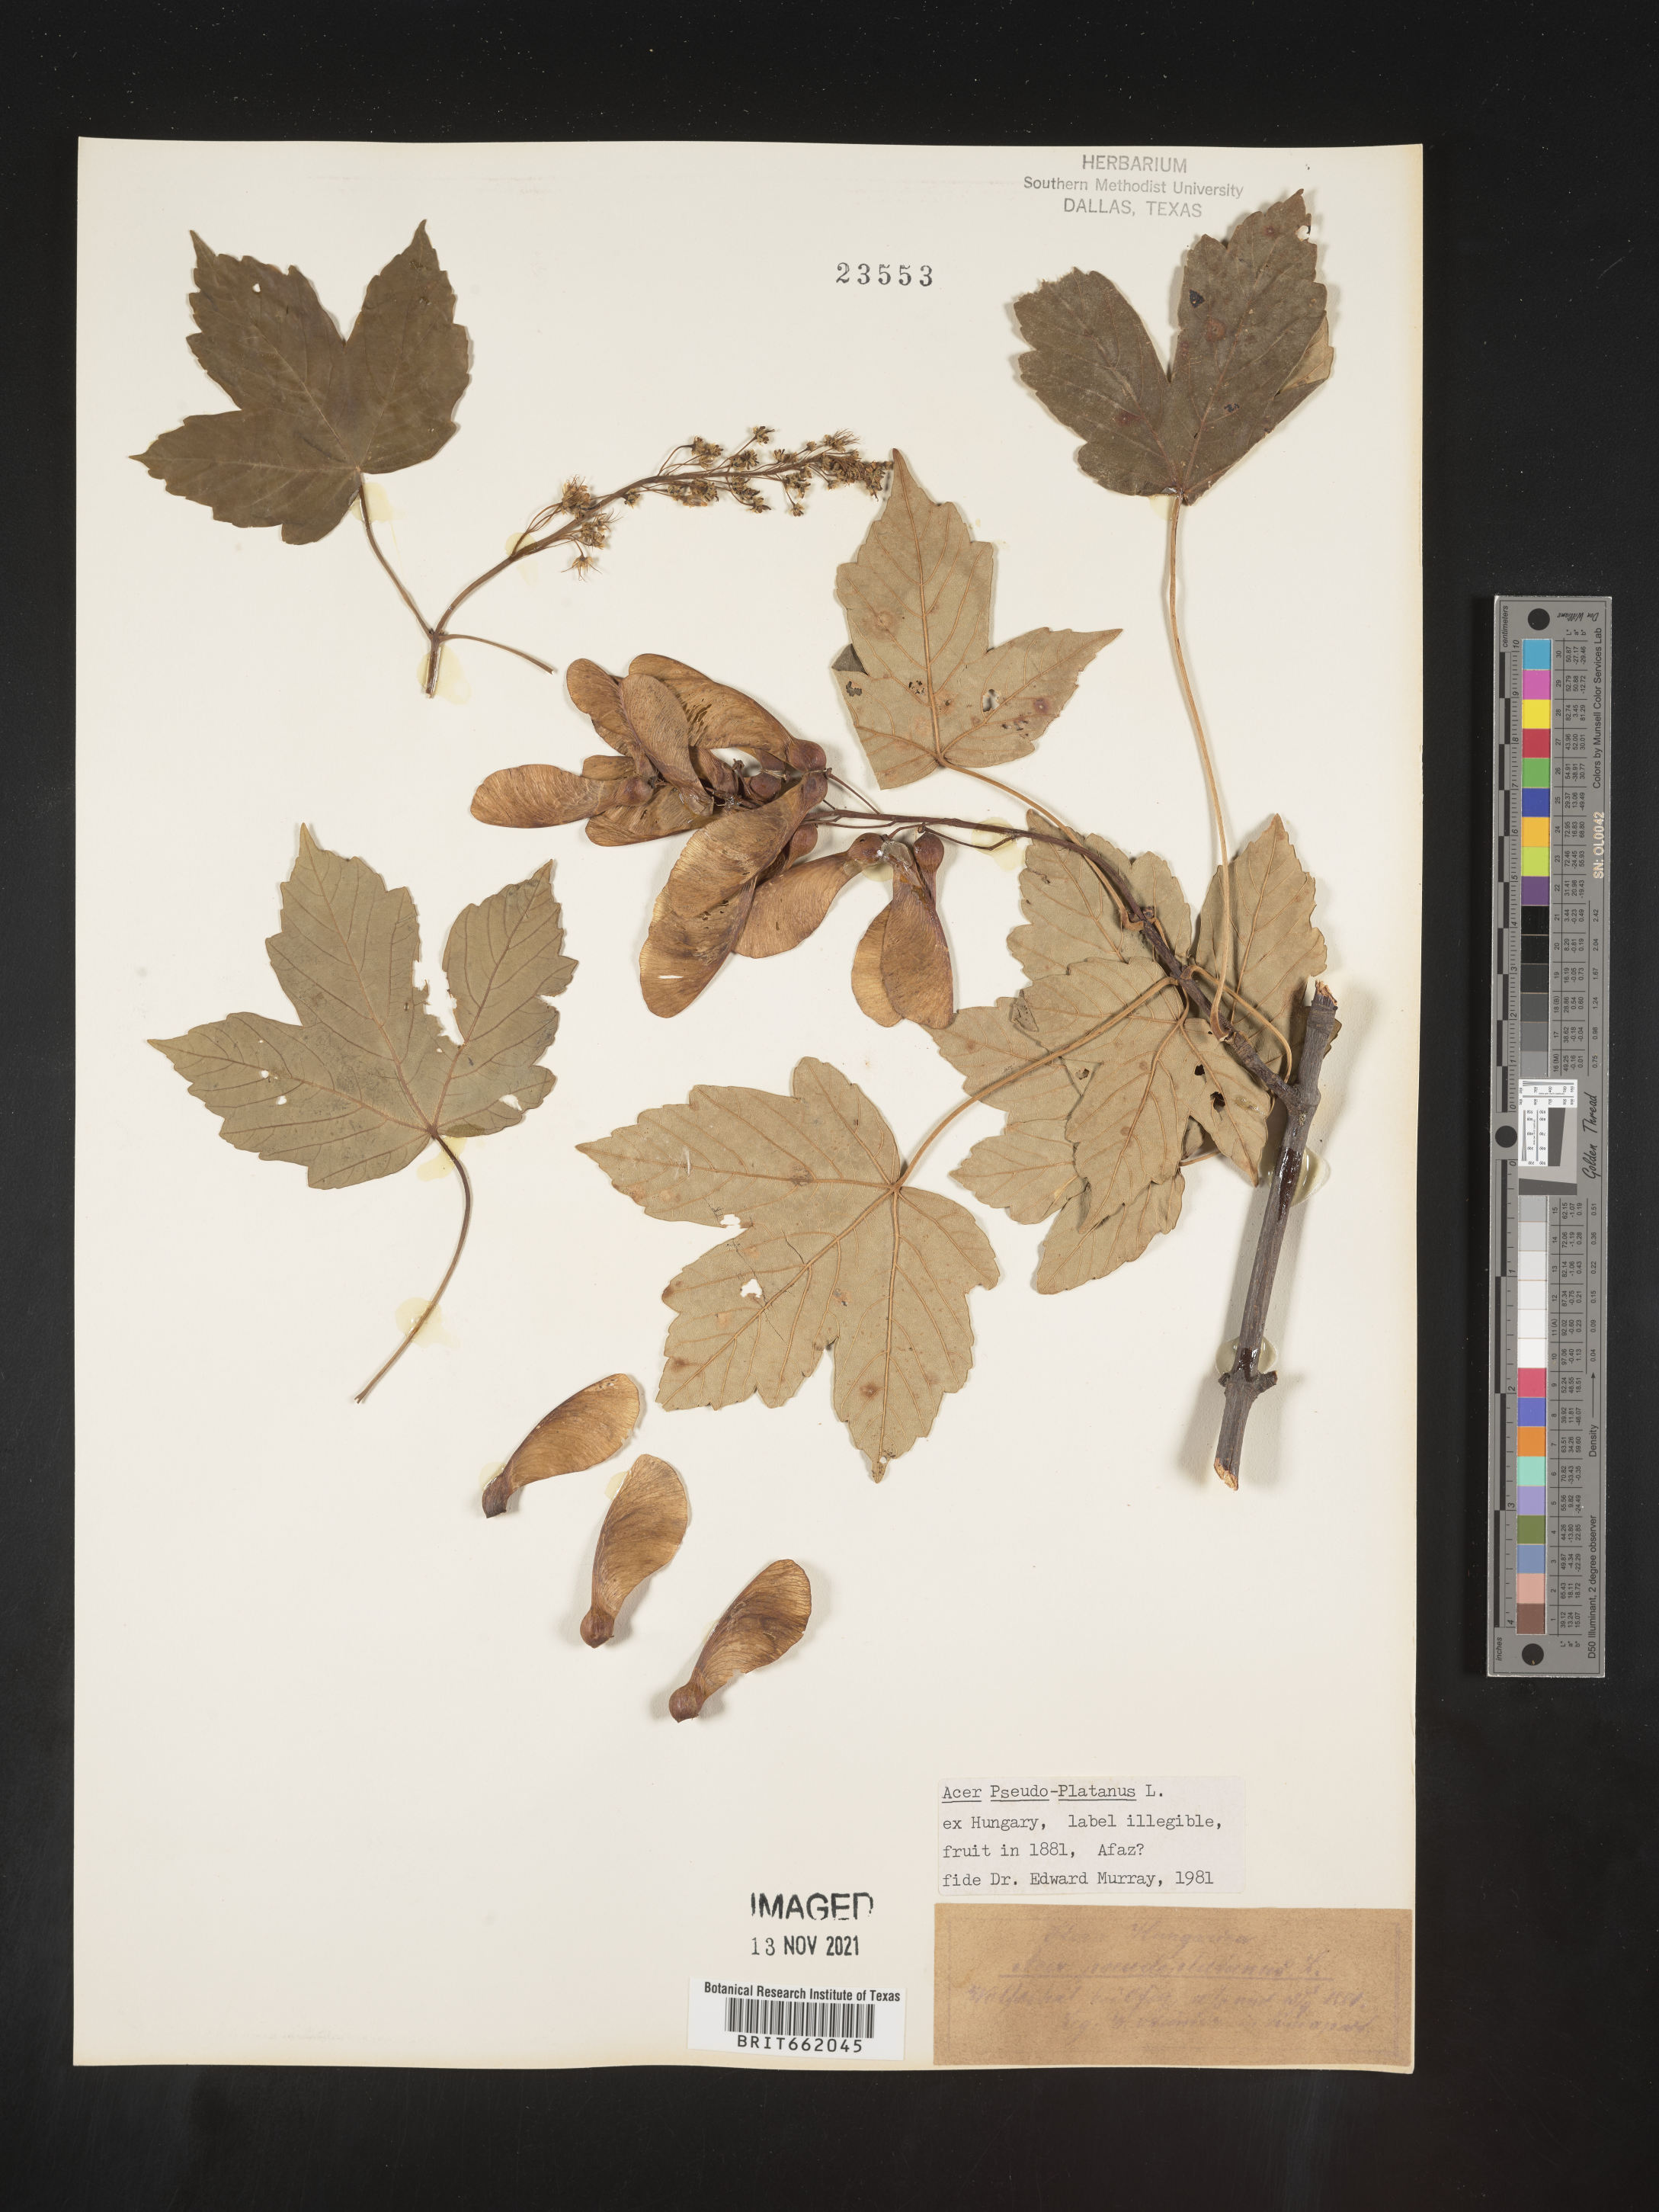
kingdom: Plantae
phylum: Tracheophyta
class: Magnoliopsida
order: Sapindales
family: Sapindaceae
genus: Acer
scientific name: Acer
